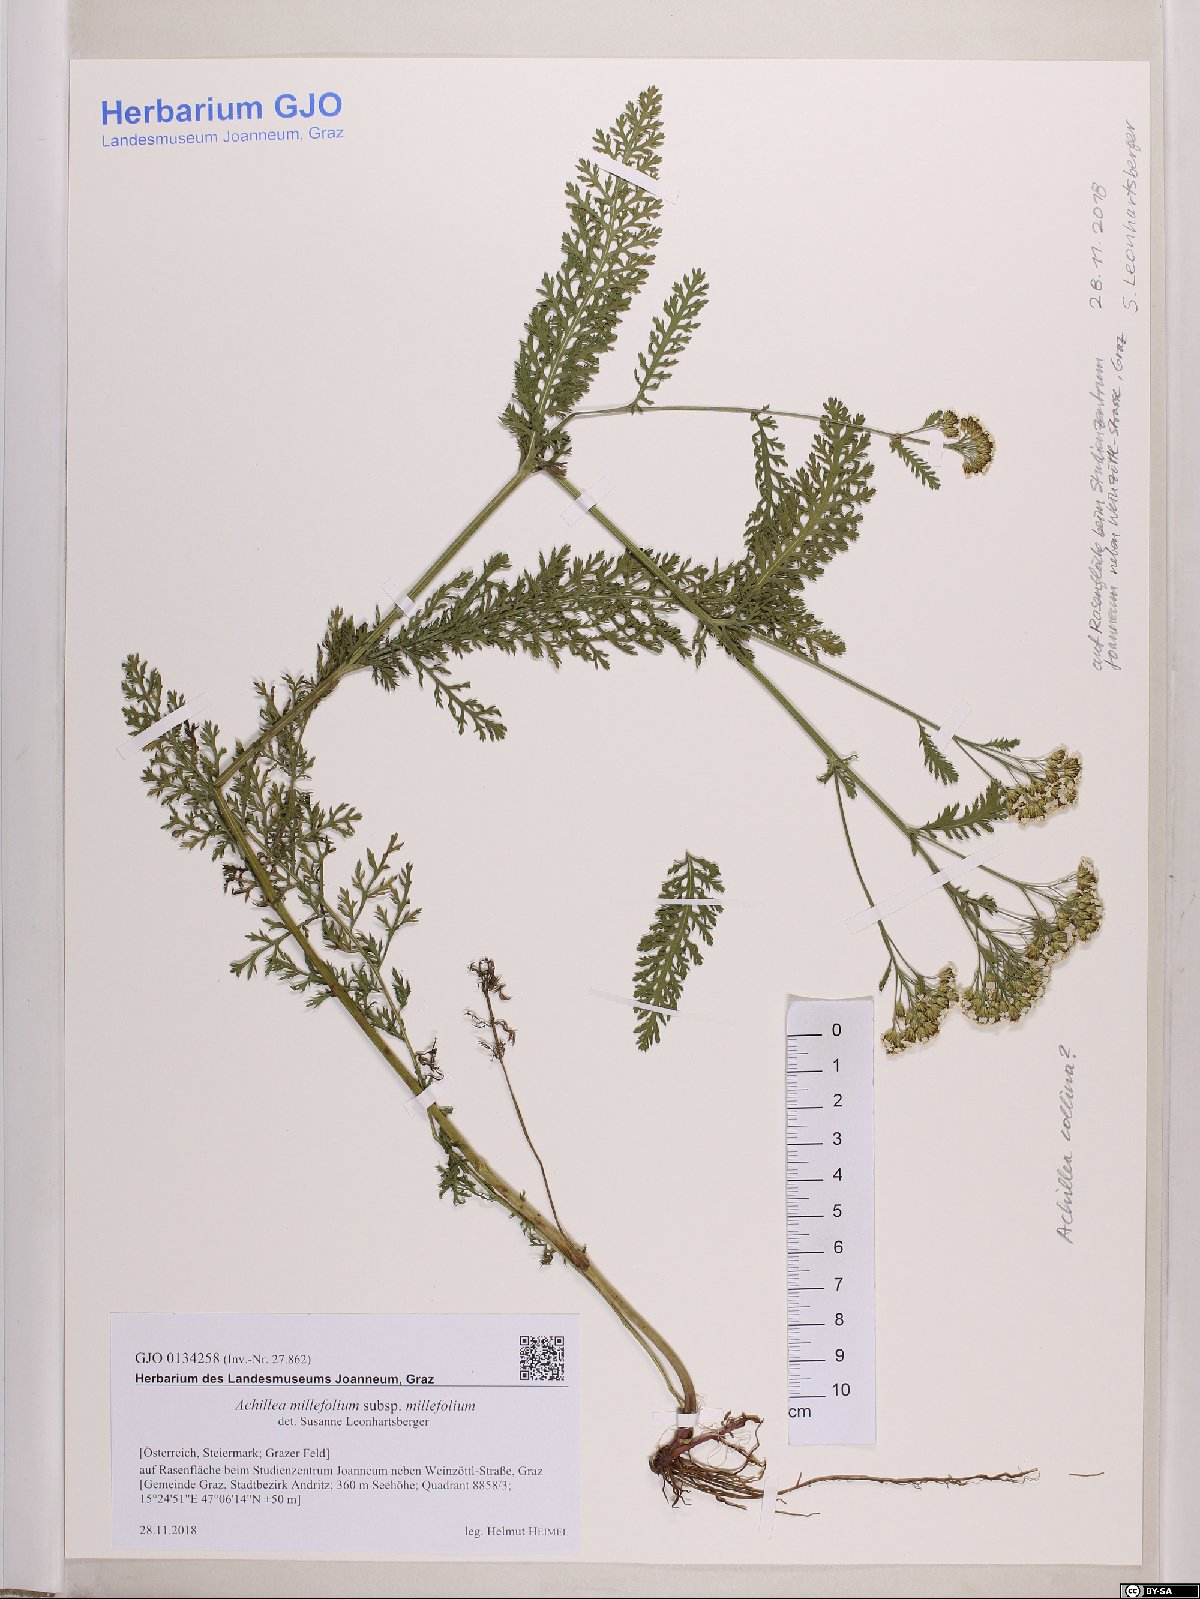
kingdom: Plantae
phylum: Tracheophyta
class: Magnoliopsida
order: Asterales
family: Asteraceae
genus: Achillea
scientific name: Achillea millefolium
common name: Yarrow
